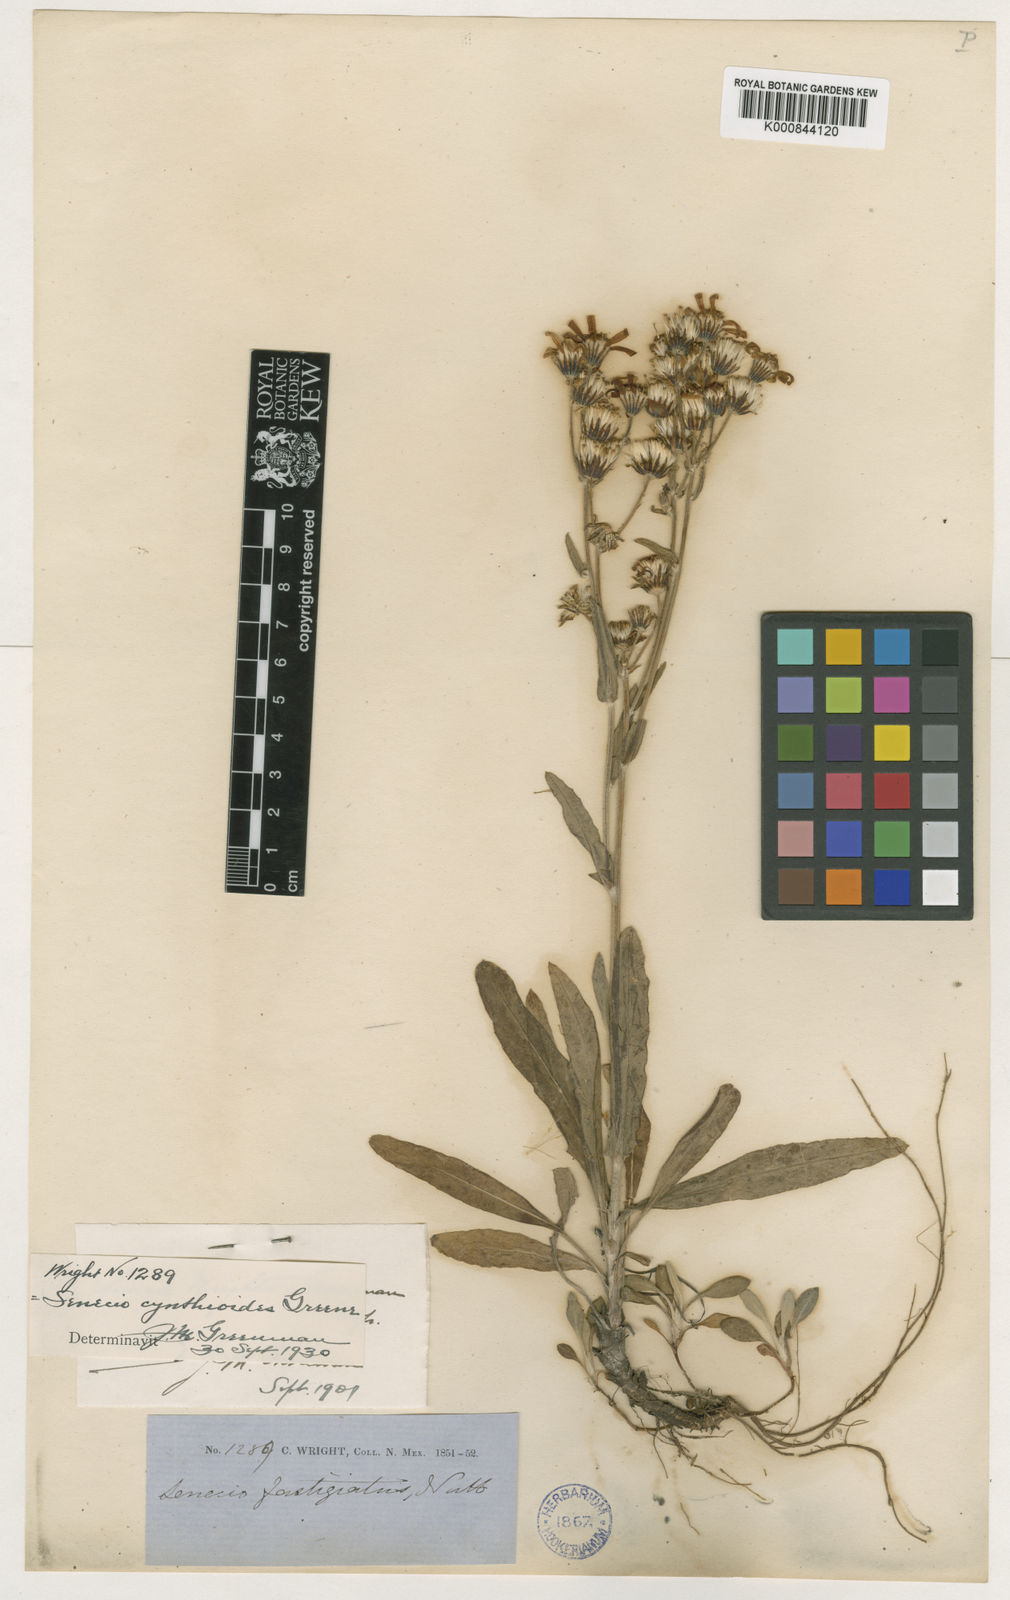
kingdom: Plantae
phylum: Tracheophyta
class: Magnoliopsida
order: Asterales
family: Asteraceae
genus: Packera
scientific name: Packera
